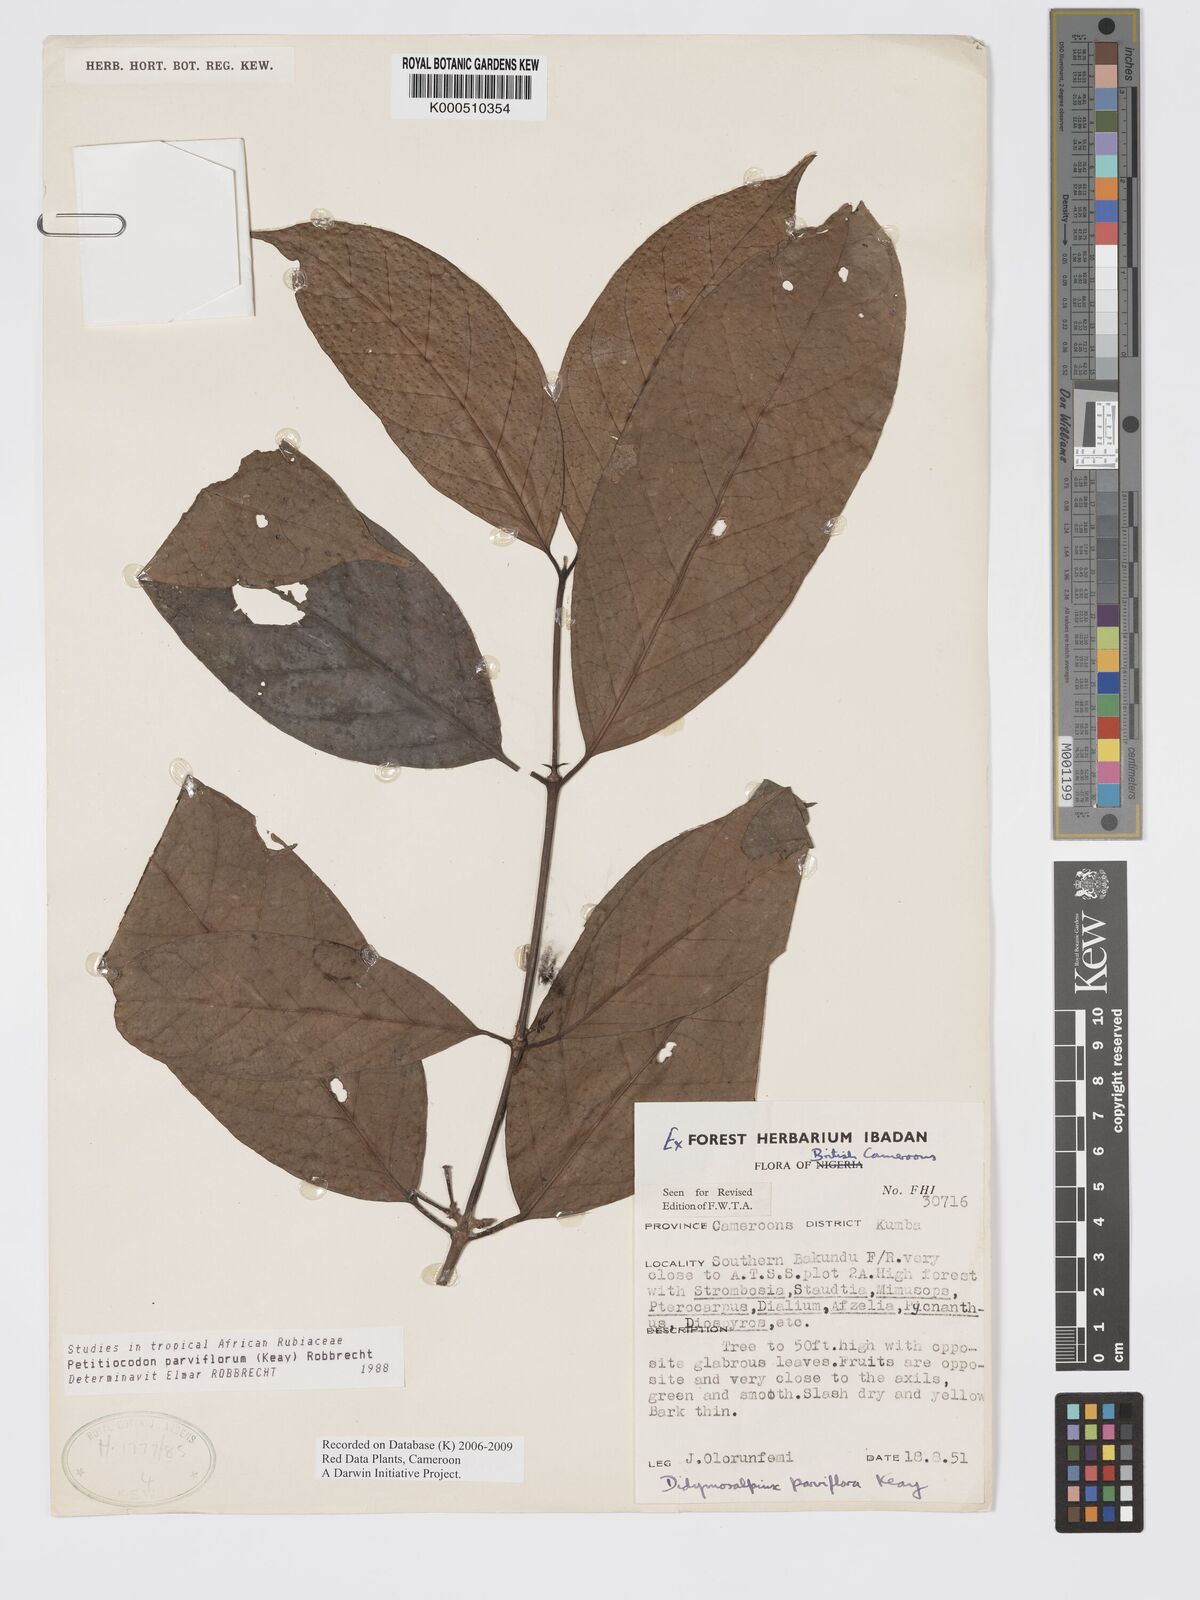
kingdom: Plantae
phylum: Tracheophyta
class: Magnoliopsida
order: Gentianales
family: Rubiaceae
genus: Petitiocodon
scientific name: Petitiocodon parviflorum
